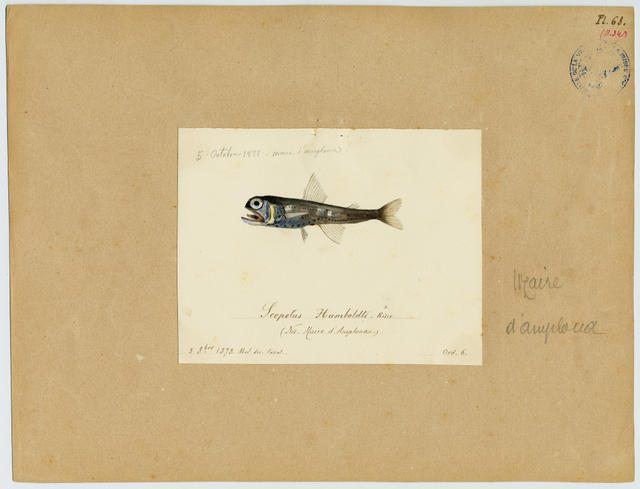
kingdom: Animalia
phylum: Chordata
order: Myctophiformes
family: Myctophidae
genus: Symbolophorus
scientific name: Symbolophorus veranyi
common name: Large scale lantern fish
